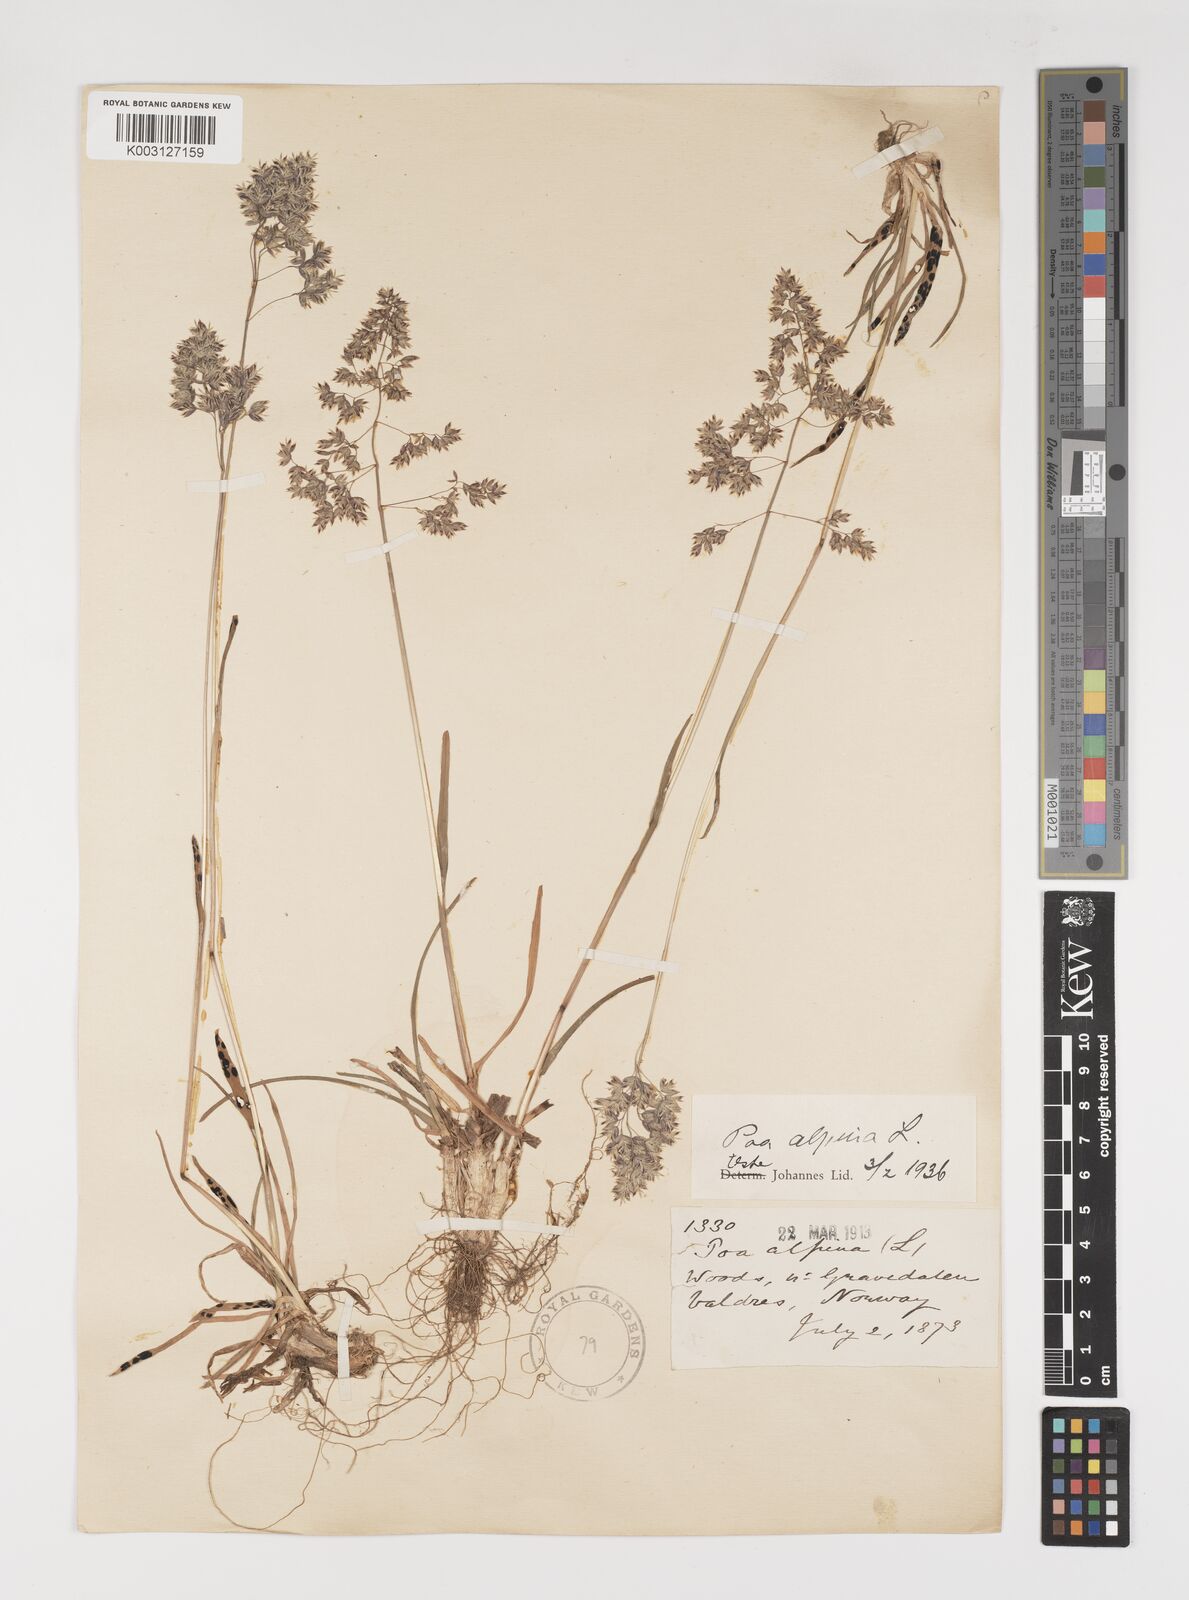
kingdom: Plantae
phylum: Tracheophyta
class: Liliopsida
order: Poales
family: Poaceae
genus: Poa
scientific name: Poa alpina
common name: Alpine bluegrass
